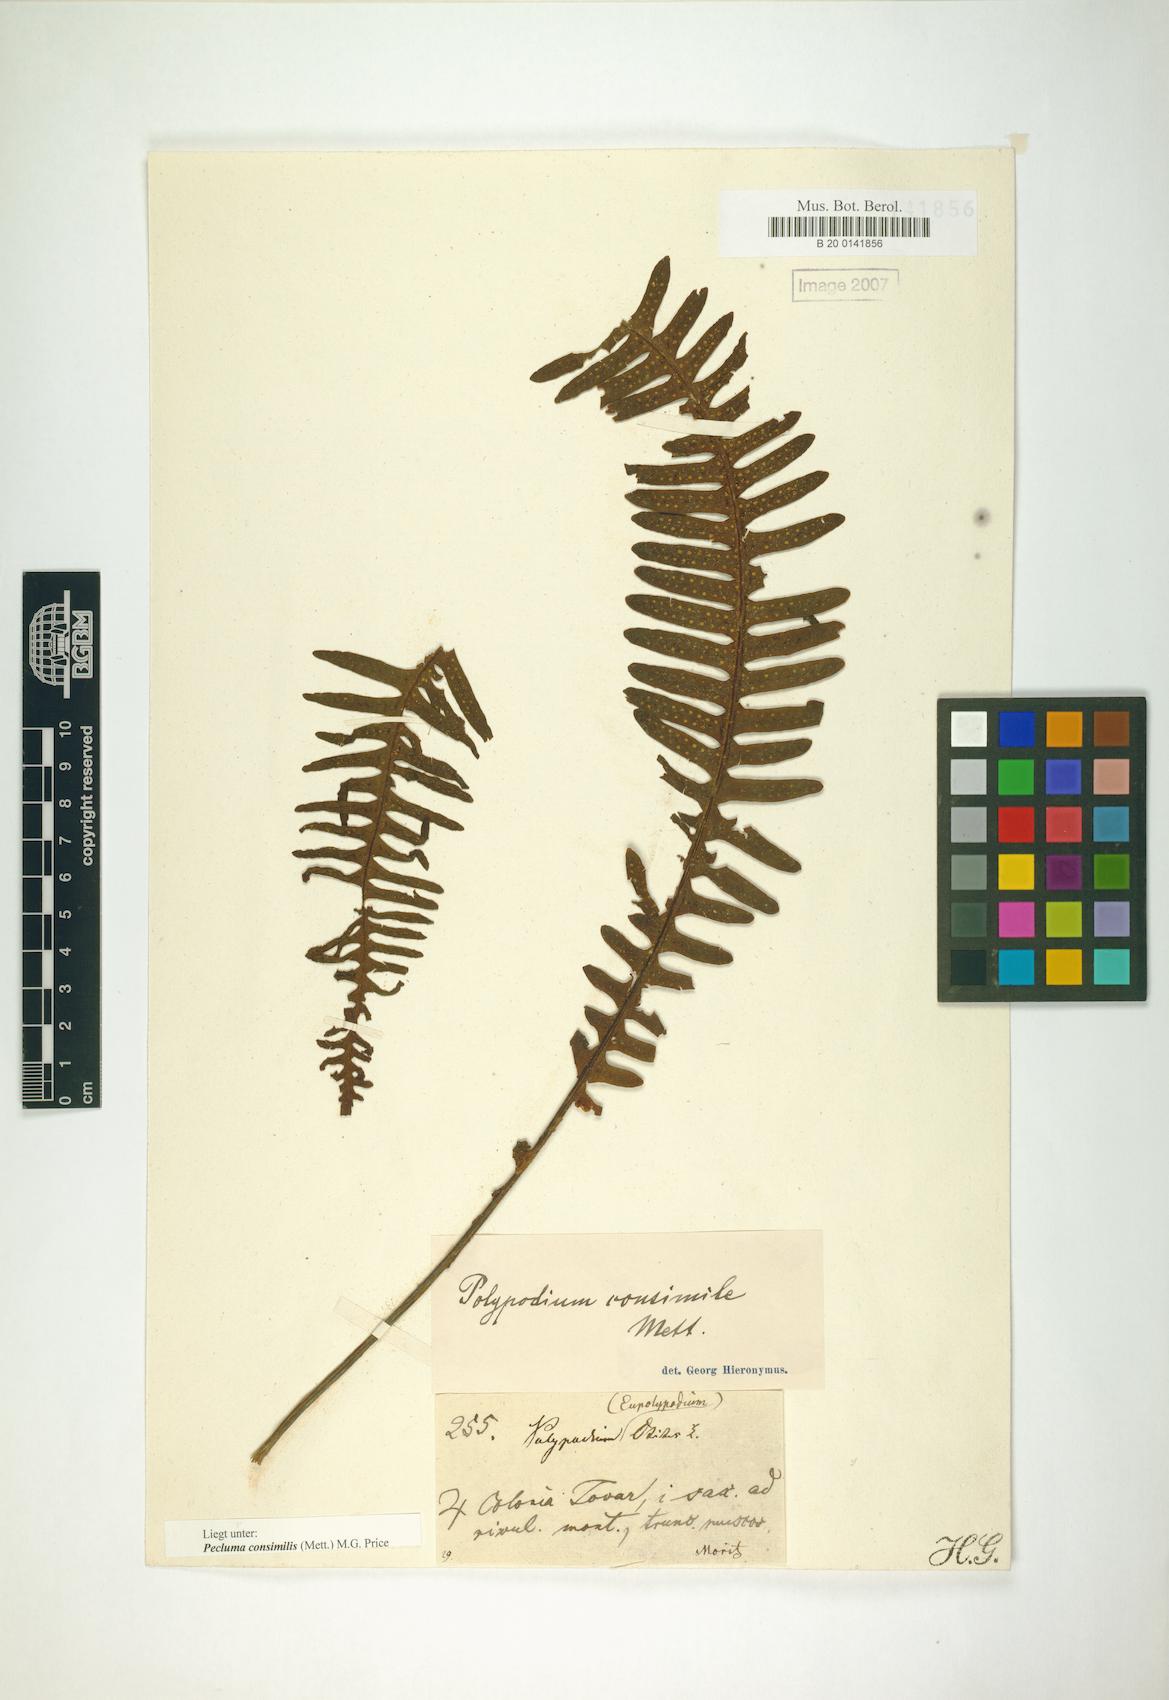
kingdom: Plantae
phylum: Tracheophyta
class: Polypodiopsida
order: Polypodiales
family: Polypodiaceae
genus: Pecluma
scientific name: Pecluma consimilis
